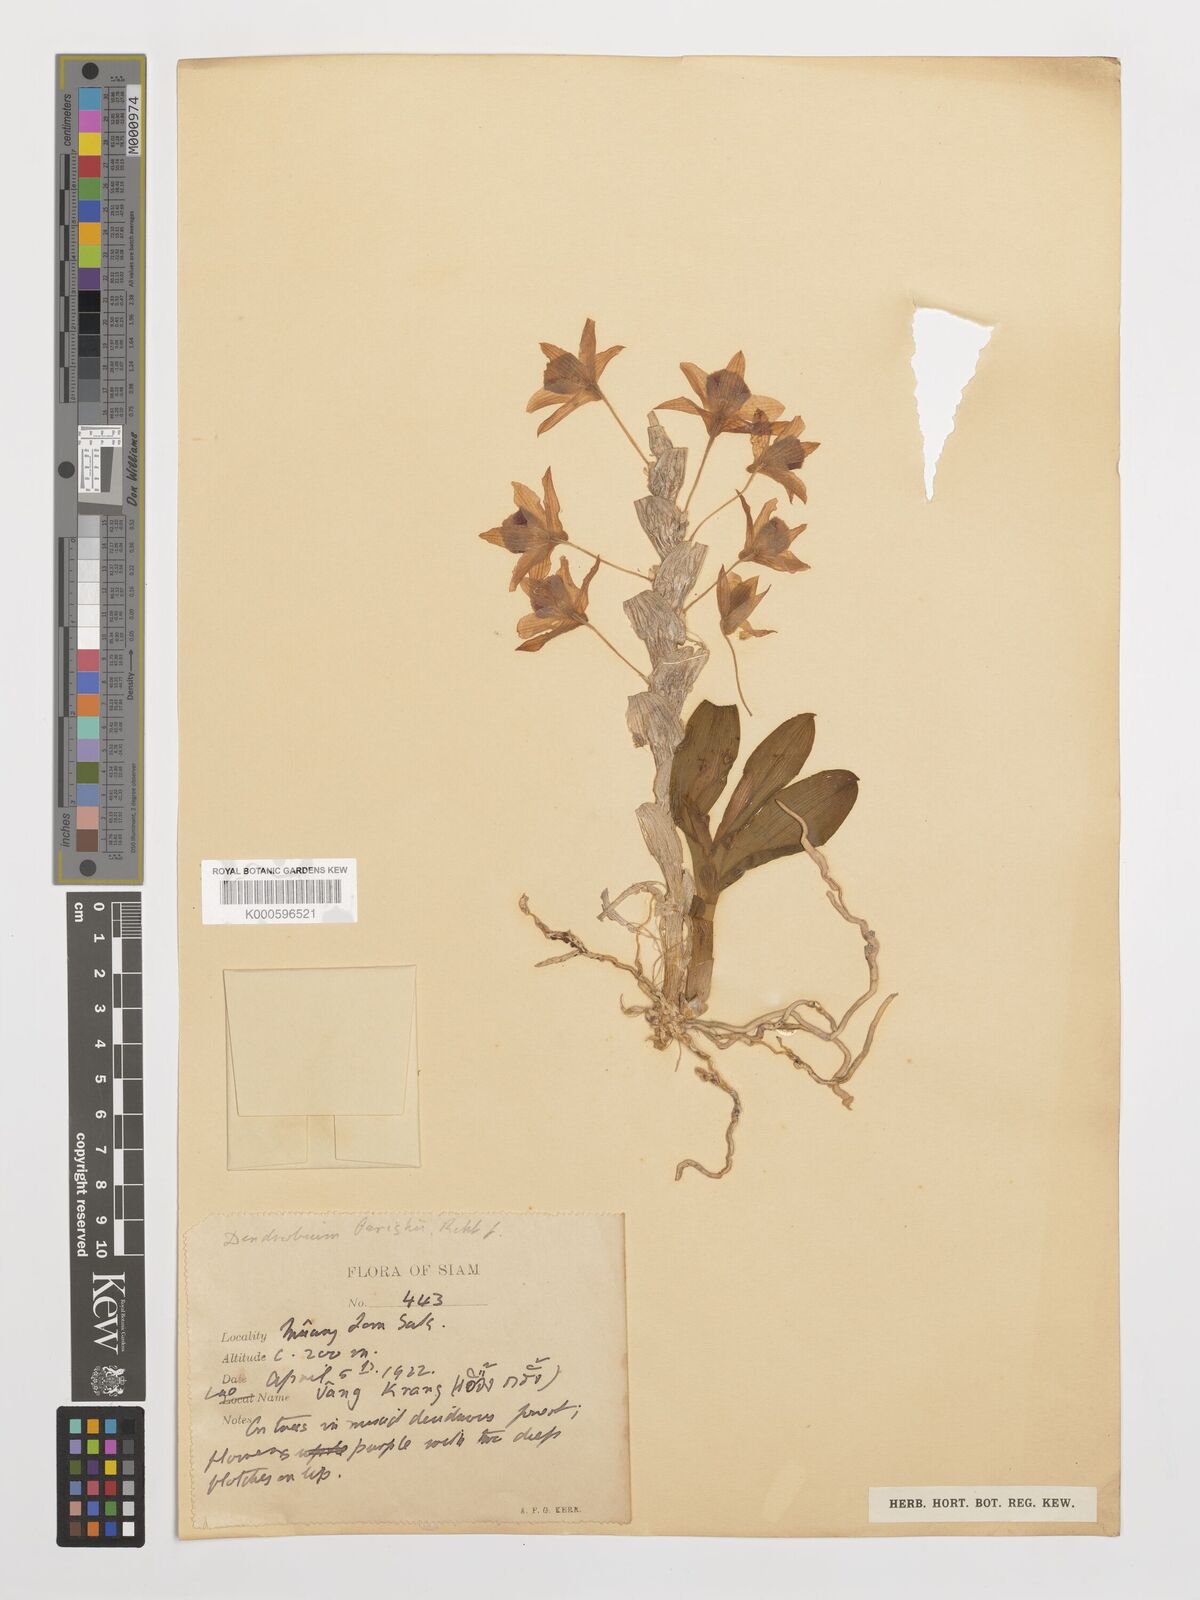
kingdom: Plantae
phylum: Tracheophyta
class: Liliopsida
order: Asparagales
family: Orchidaceae
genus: Dendrobium
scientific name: Dendrobium
